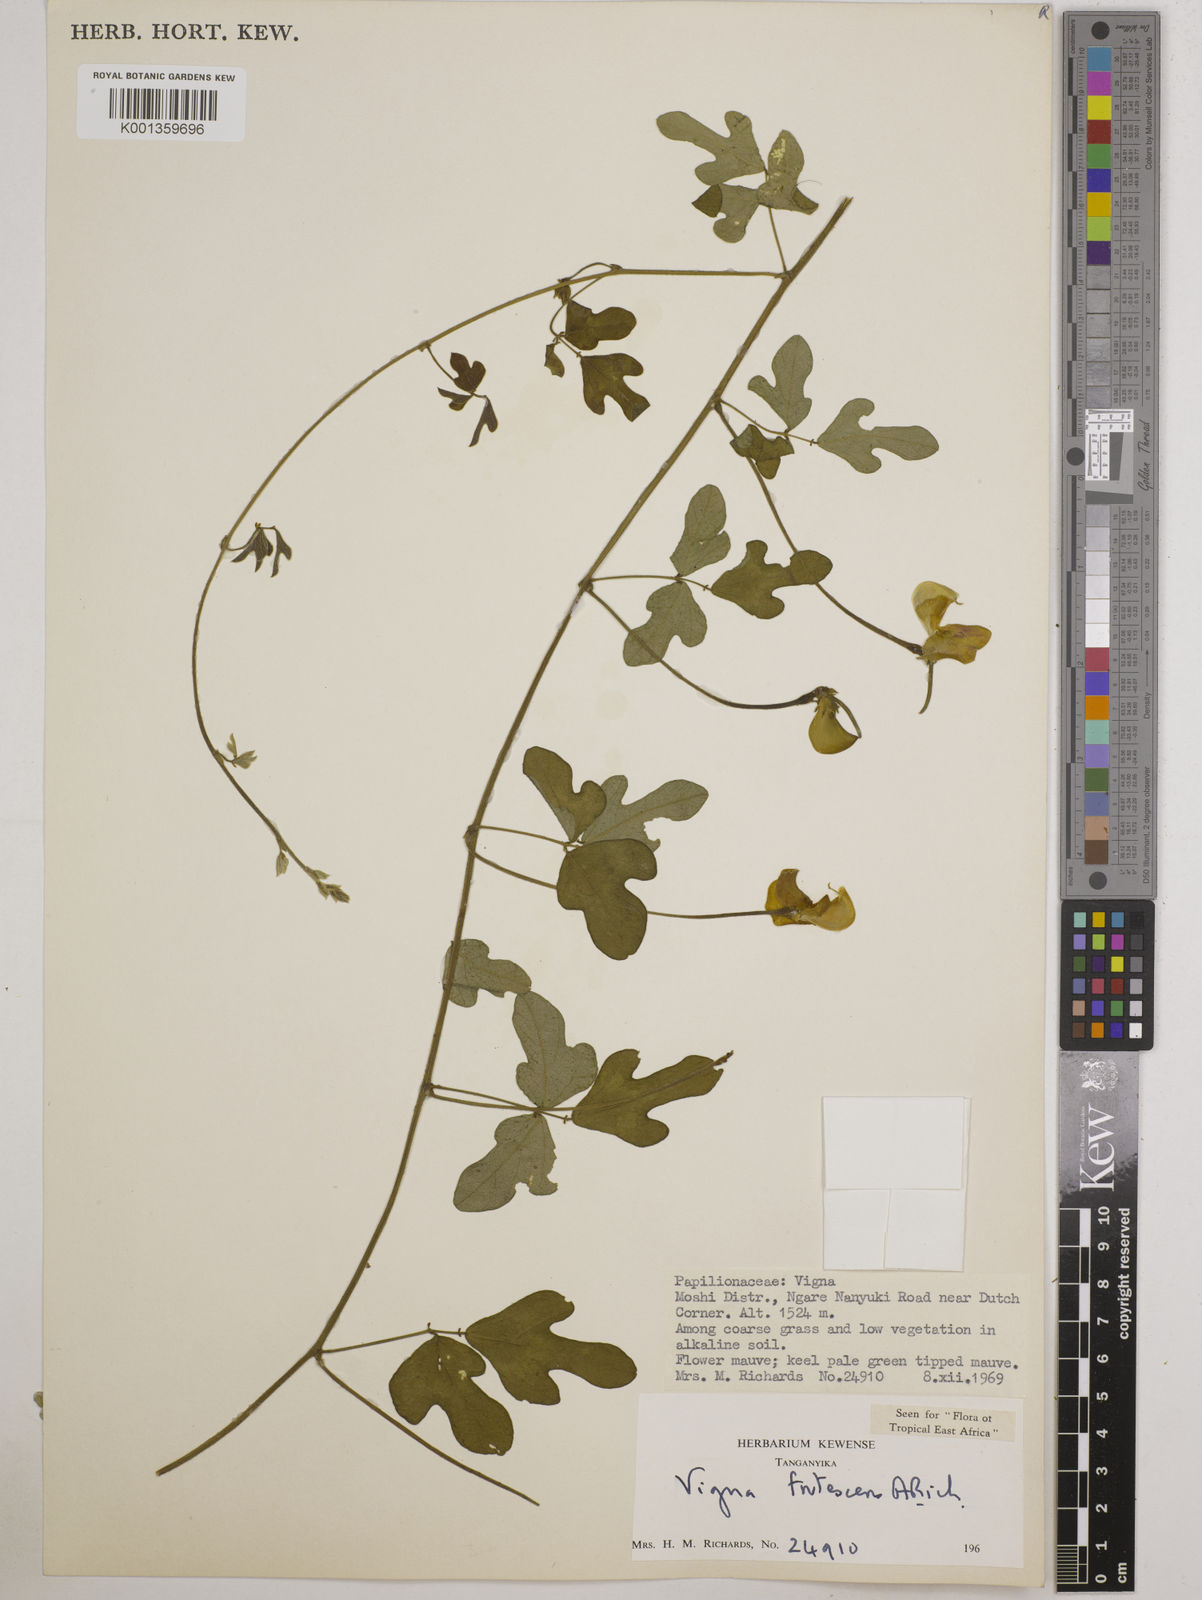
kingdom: Plantae
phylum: Tracheophyta
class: Magnoliopsida
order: Fabales
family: Fabaceae
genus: Vigna
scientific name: Vigna frutescens
